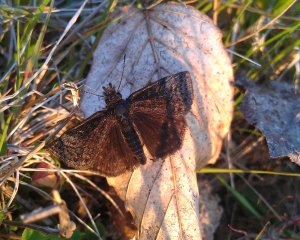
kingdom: Animalia
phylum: Arthropoda
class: Insecta
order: Lepidoptera
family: Hesperiidae
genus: Erynnis
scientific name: Erynnis icelus
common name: Dreamy Duskywing
